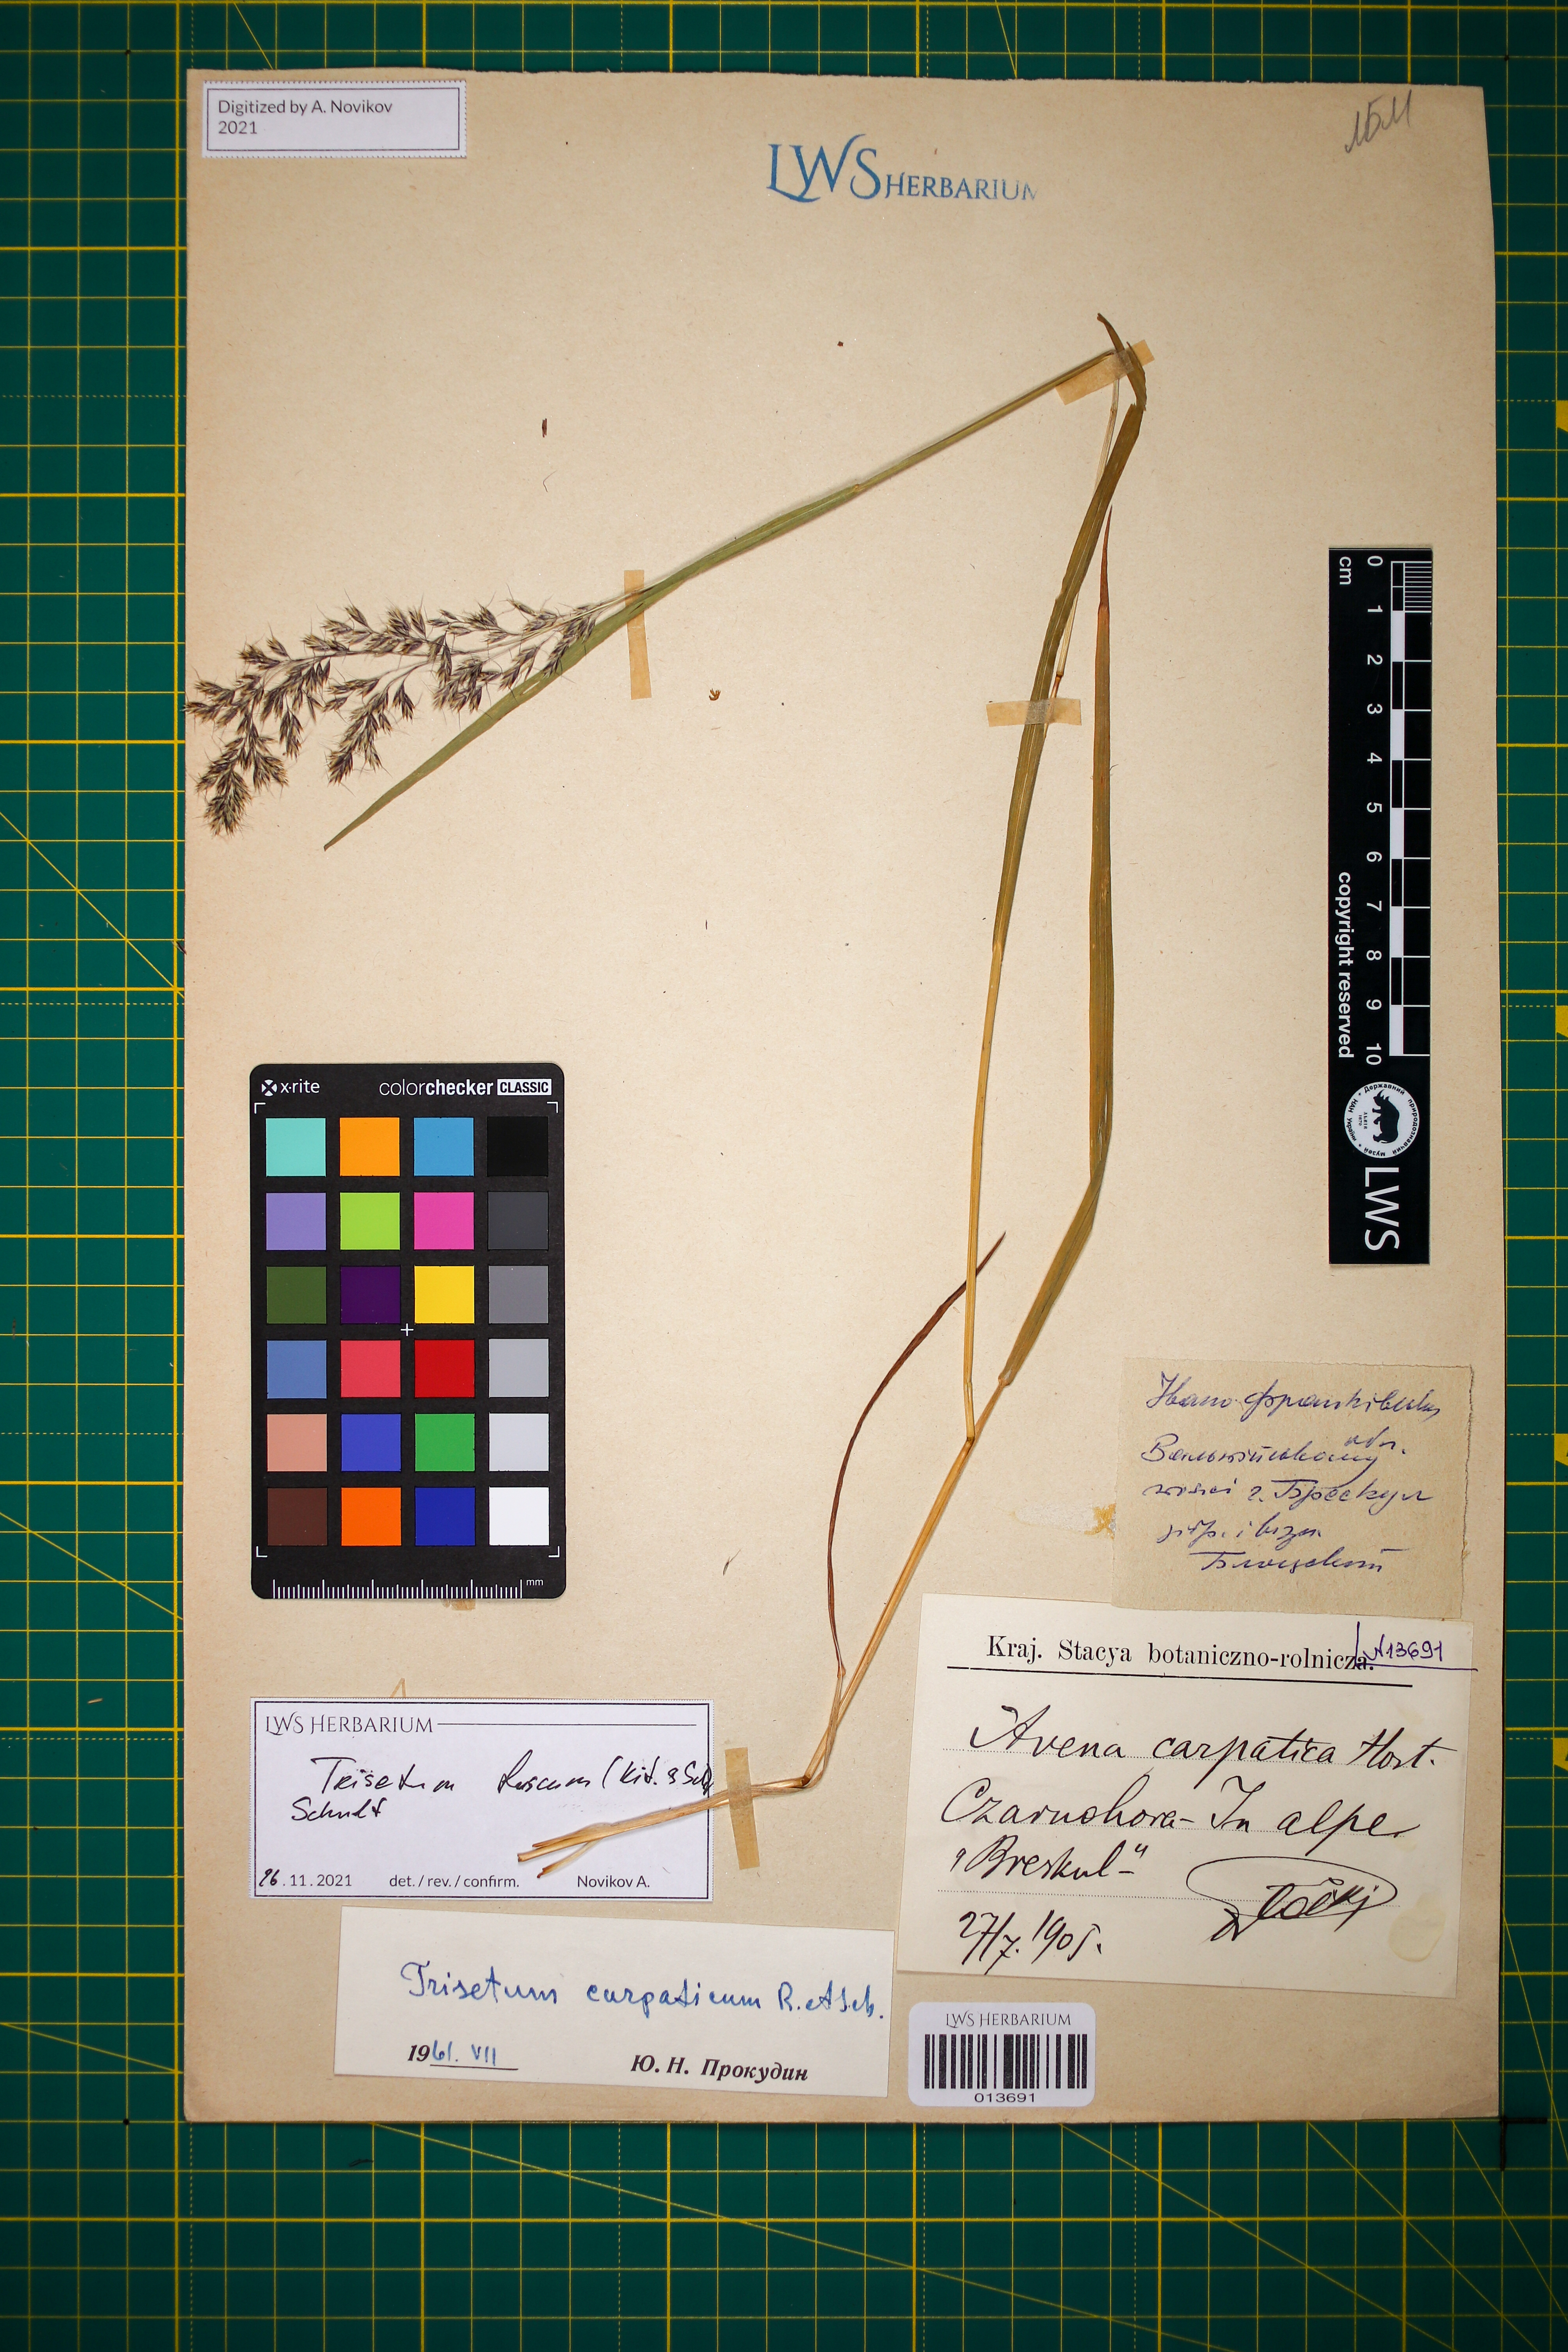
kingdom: Plantae
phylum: Tracheophyta
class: Liliopsida
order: Poales
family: Poaceae
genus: Trisetum
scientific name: Trisetum fuscum
